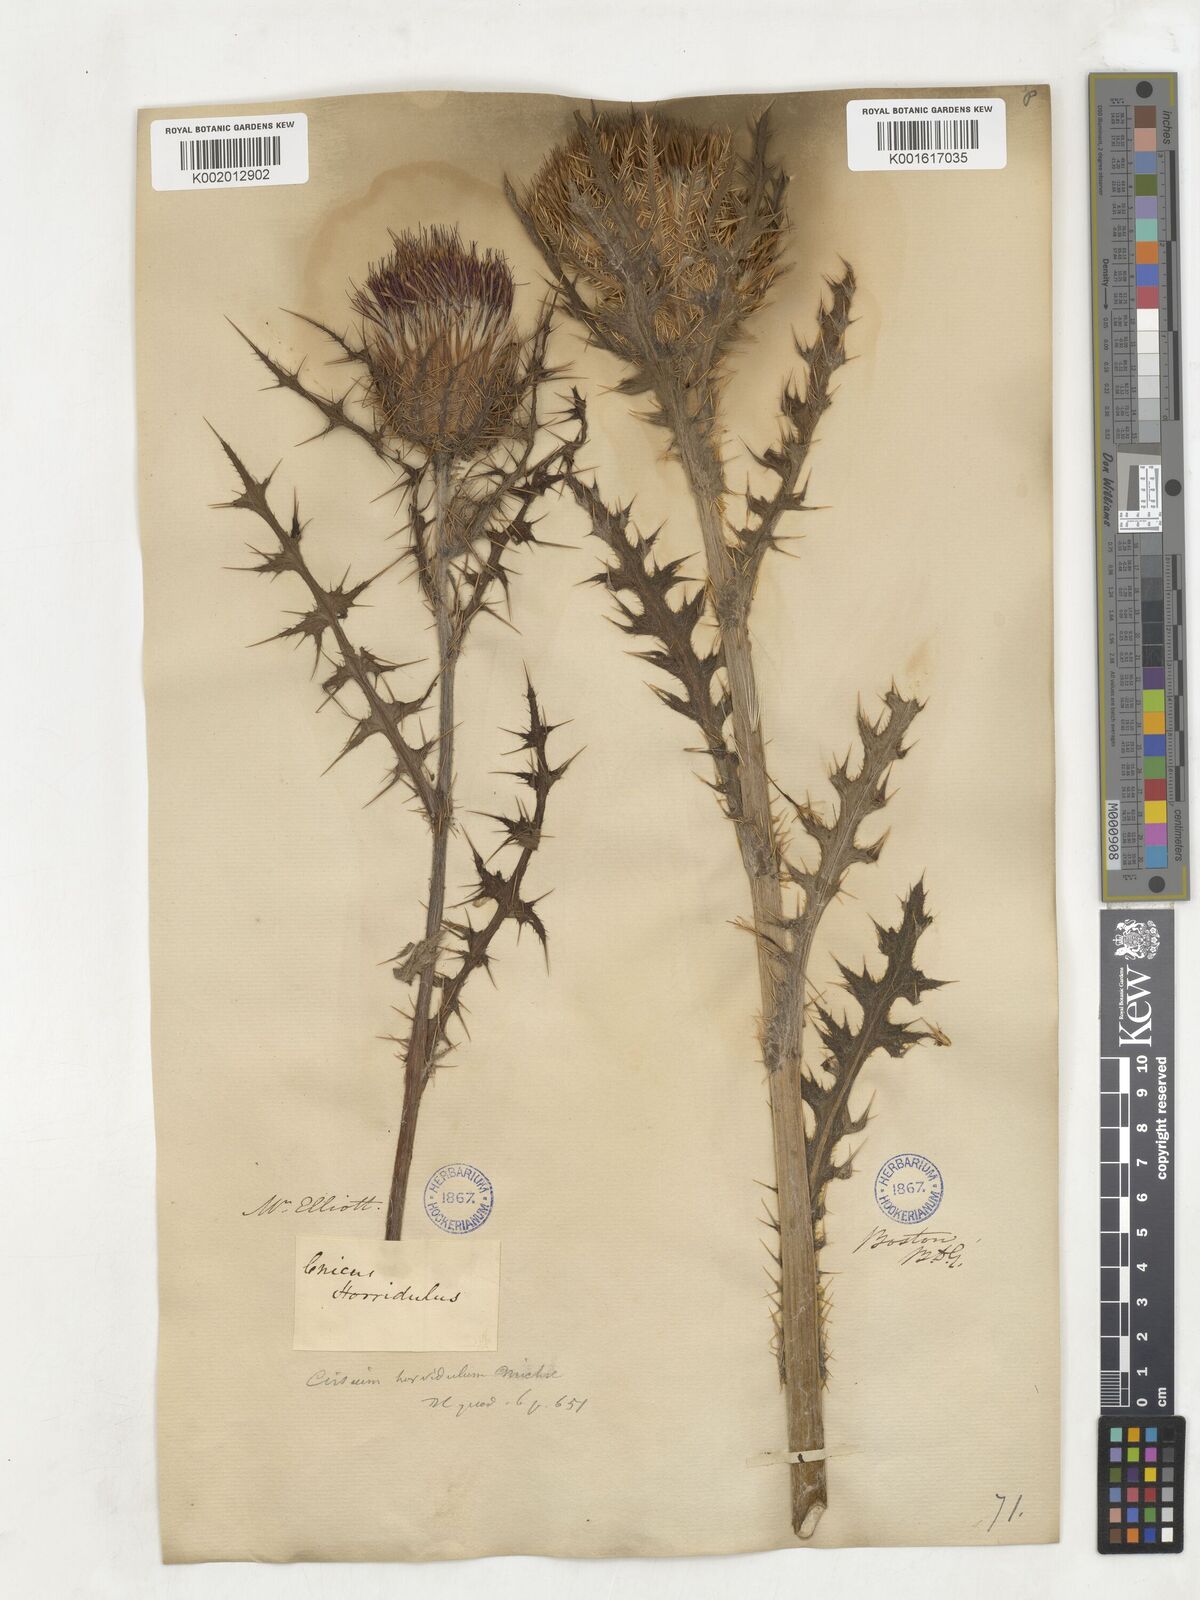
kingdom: Plantae
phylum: Tracheophyta
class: Magnoliopsida
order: Asterales
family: Asteraceae
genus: Cirsium
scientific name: Cirsium horridulum
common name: Bristly thistle
